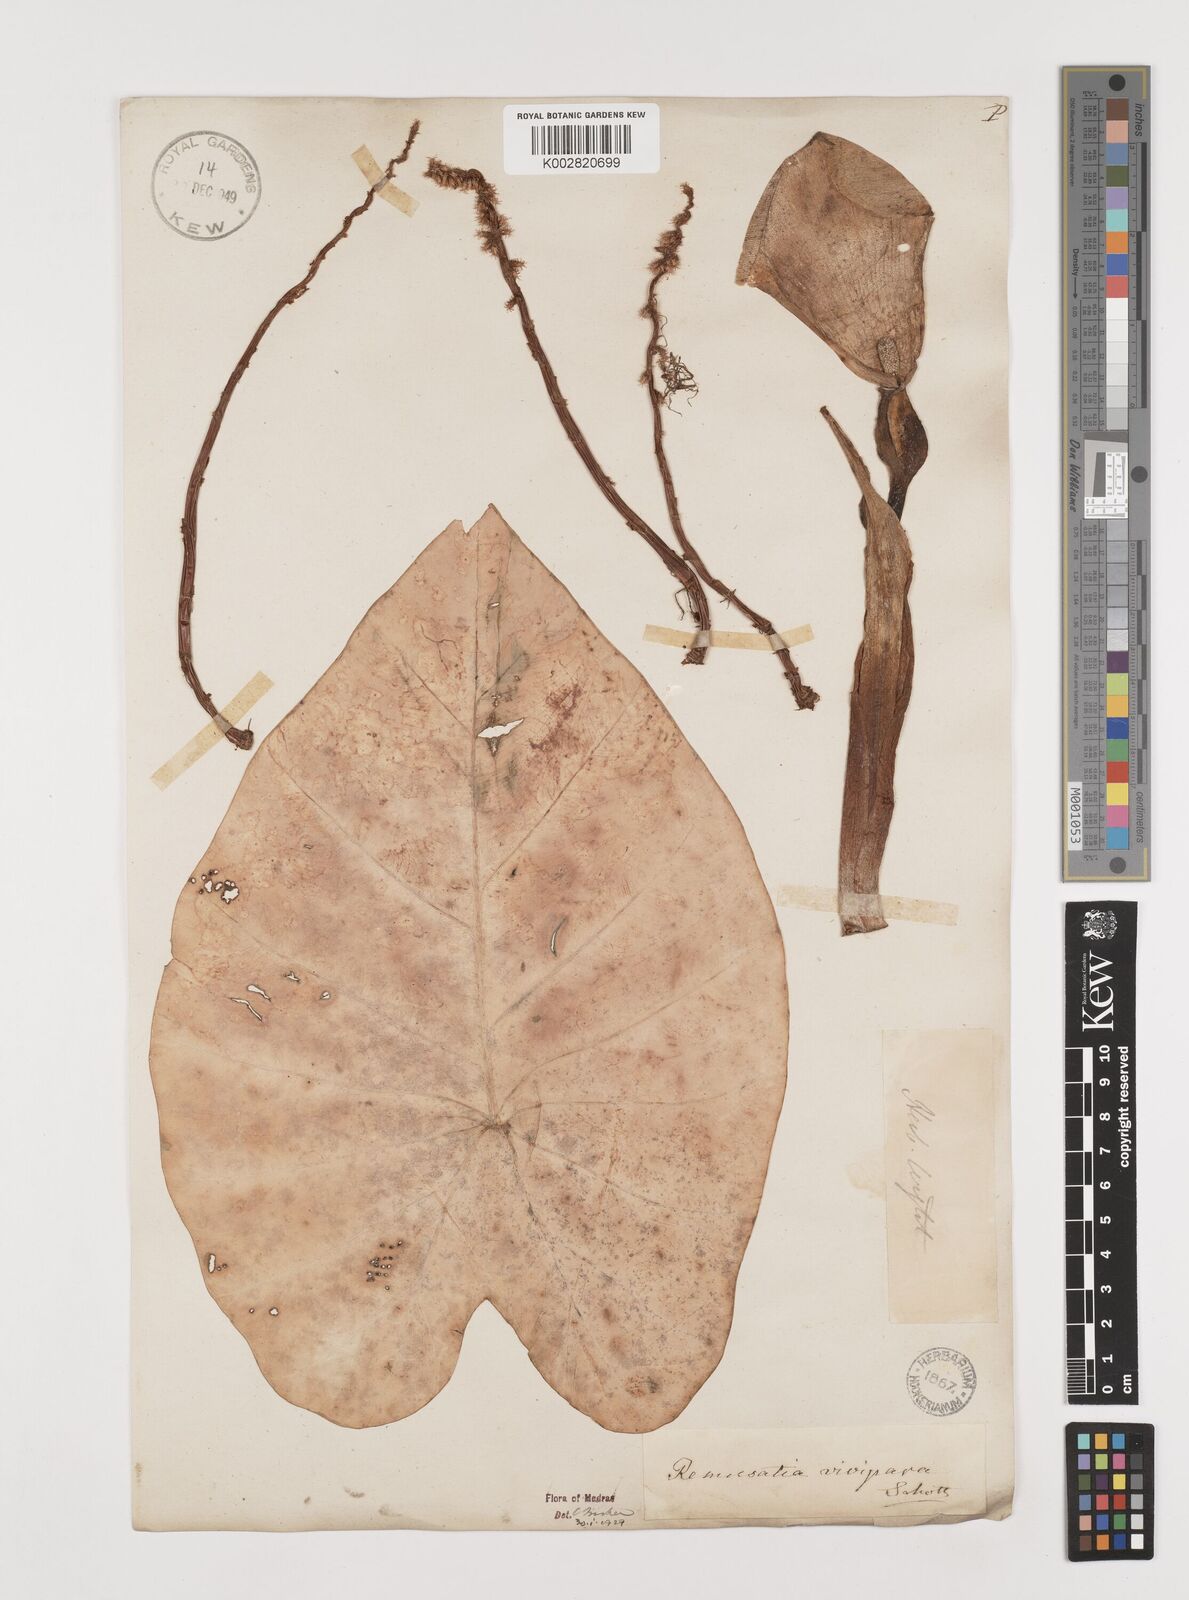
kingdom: Plantae
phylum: Tracheophyta
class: Liliopsida
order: Alismatales
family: Araceae
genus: Remusatia
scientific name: Remusatia vivipara
